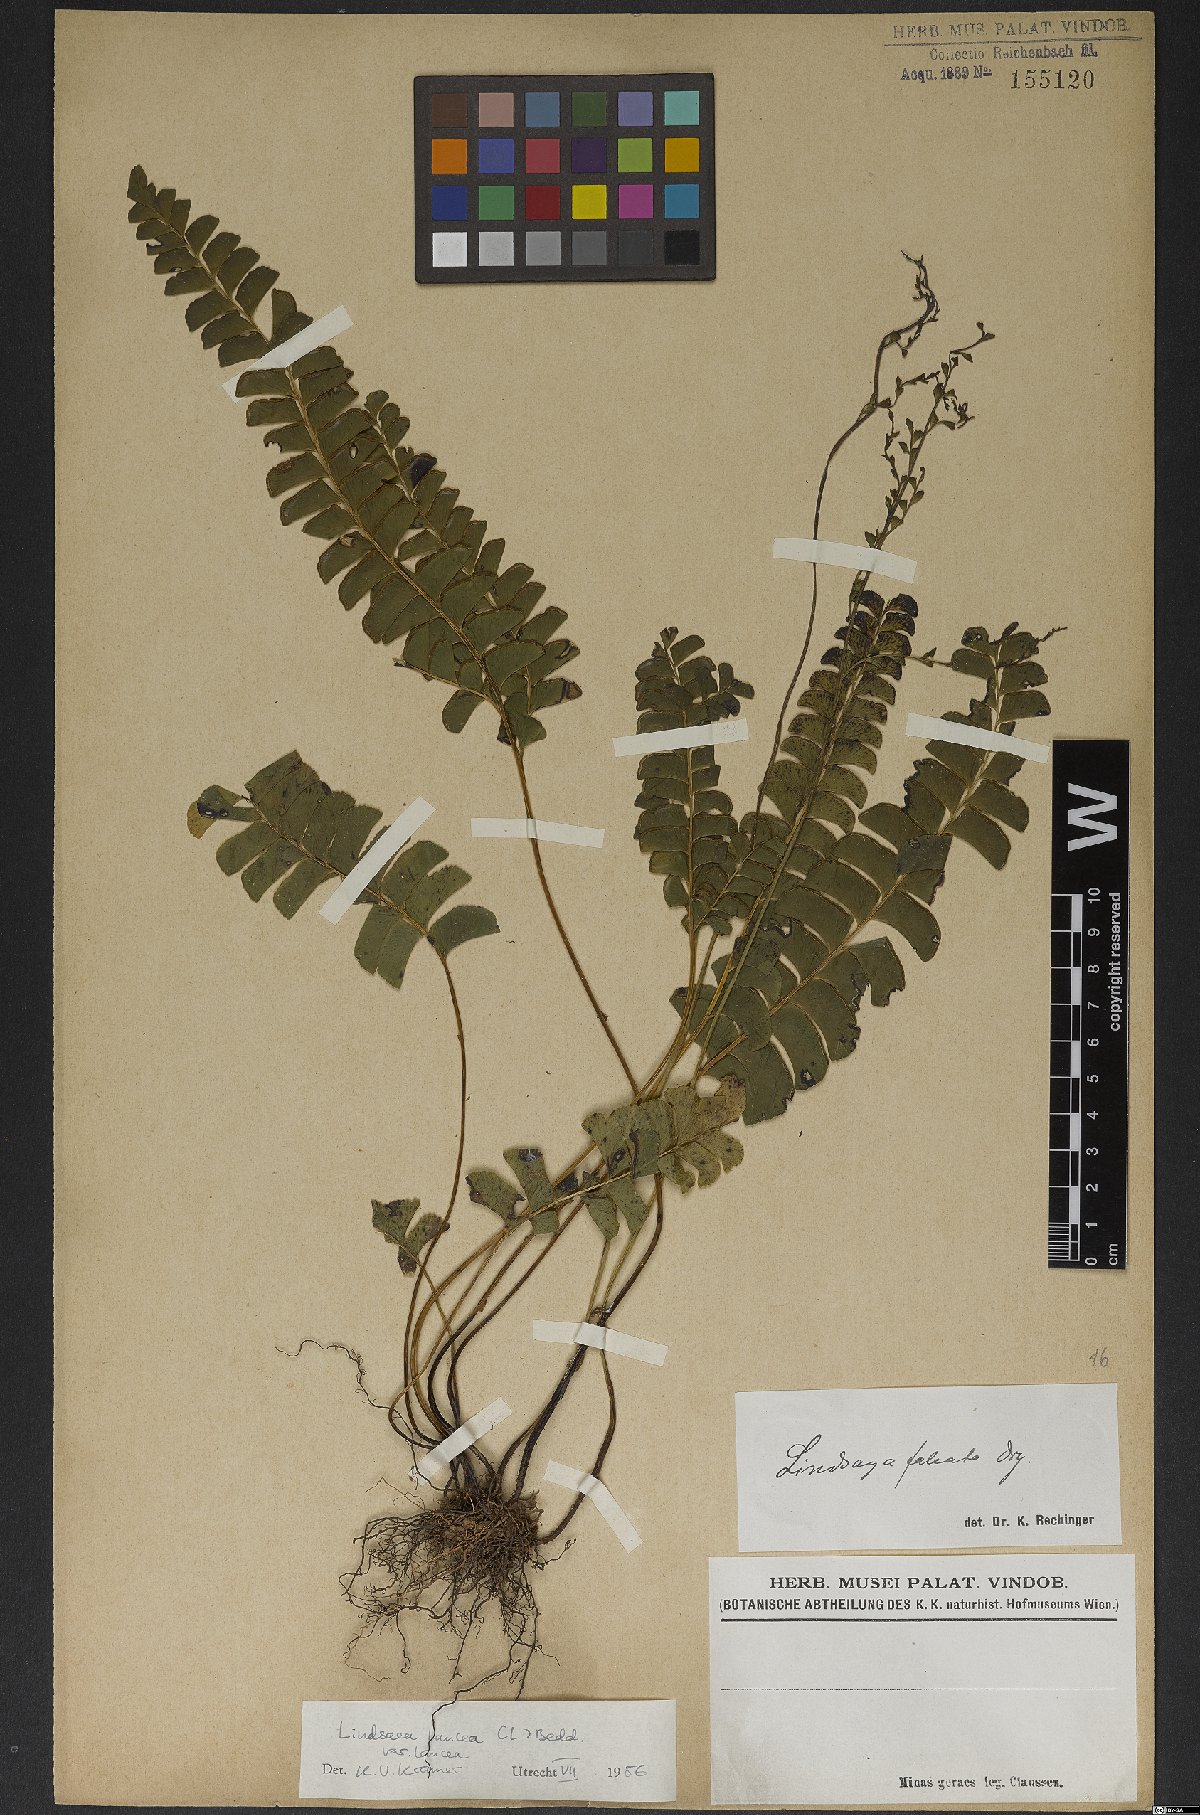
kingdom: Plantae
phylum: Tracheophyta
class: Polypodiopsida
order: Polypodiales
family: Lindsaeaceae
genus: Lindsaea
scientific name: Lindsaea lancea
